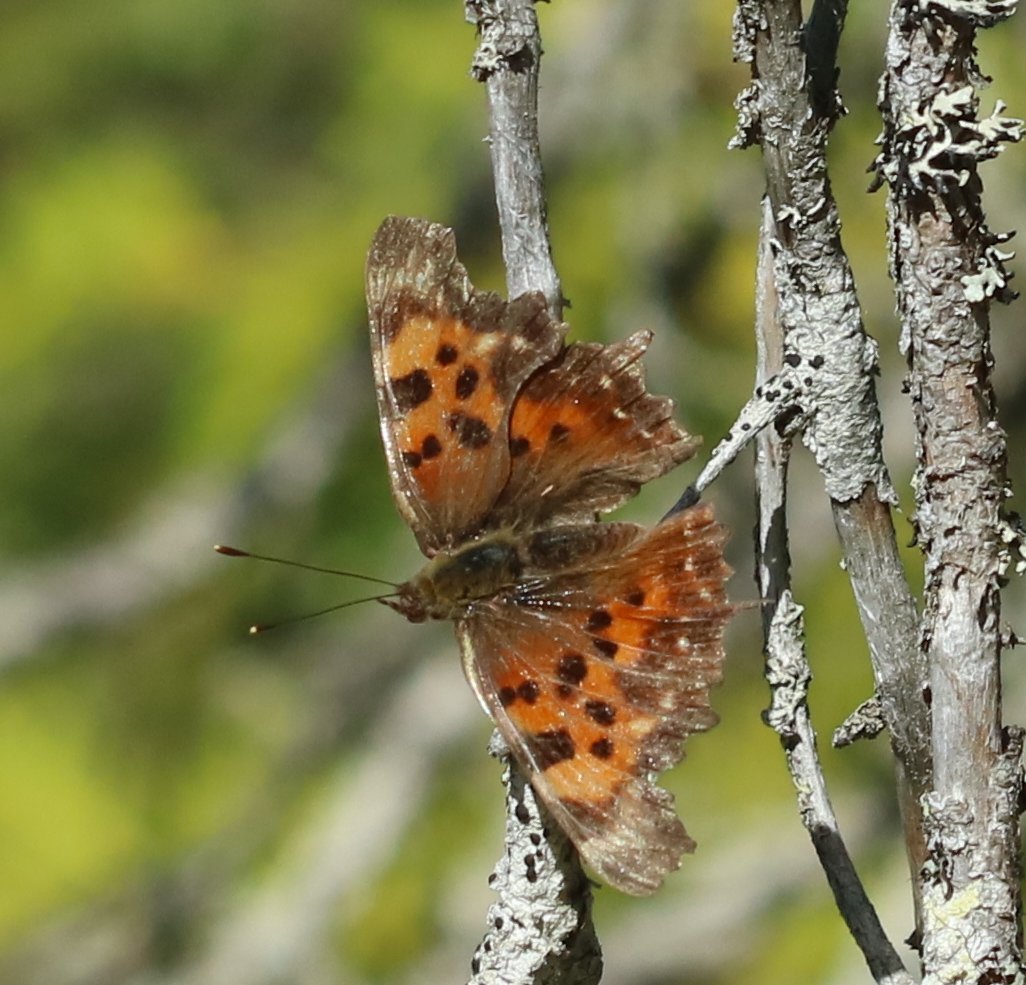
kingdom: Animalia
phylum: Arthropoda
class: Insecta
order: Lepidoptera
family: Nymphalidae
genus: Polygonia
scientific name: Polygonia comma
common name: Eastern Comma
